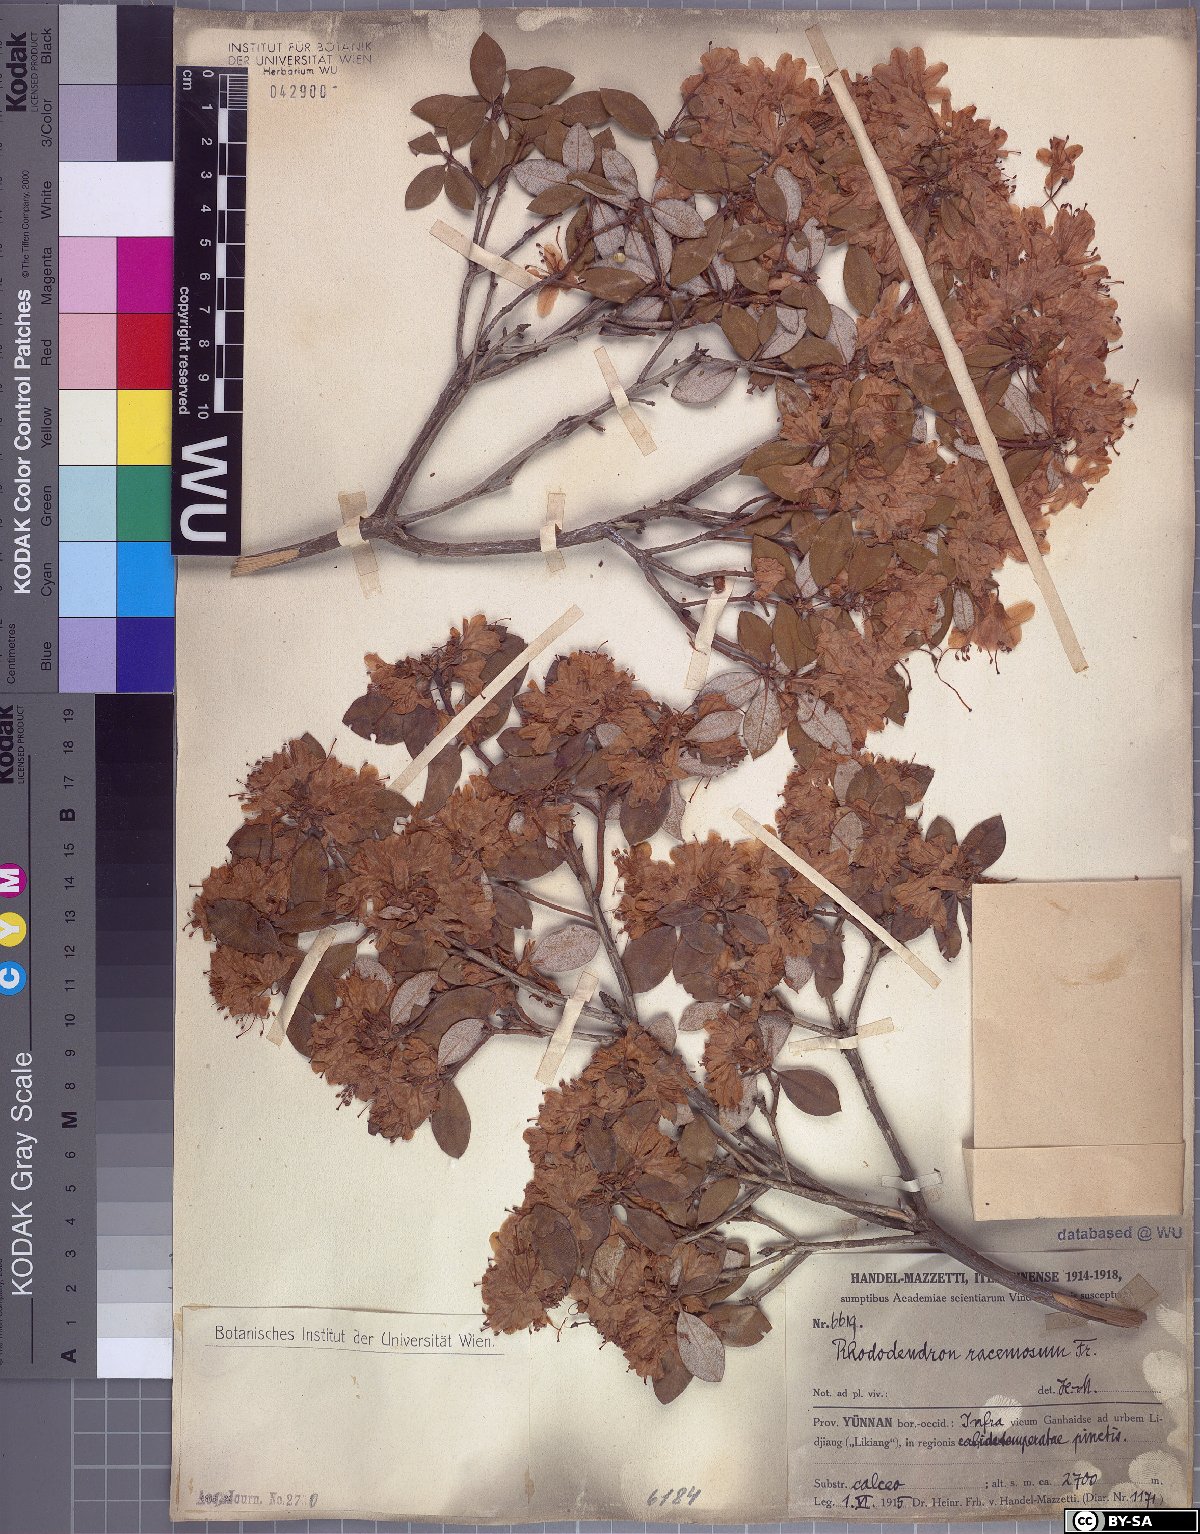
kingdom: Plantae
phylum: Tracheophyta
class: Magnoliopsida
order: Ericales
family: Ericaceae
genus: Rhododendron
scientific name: Rhododendron racemosum
